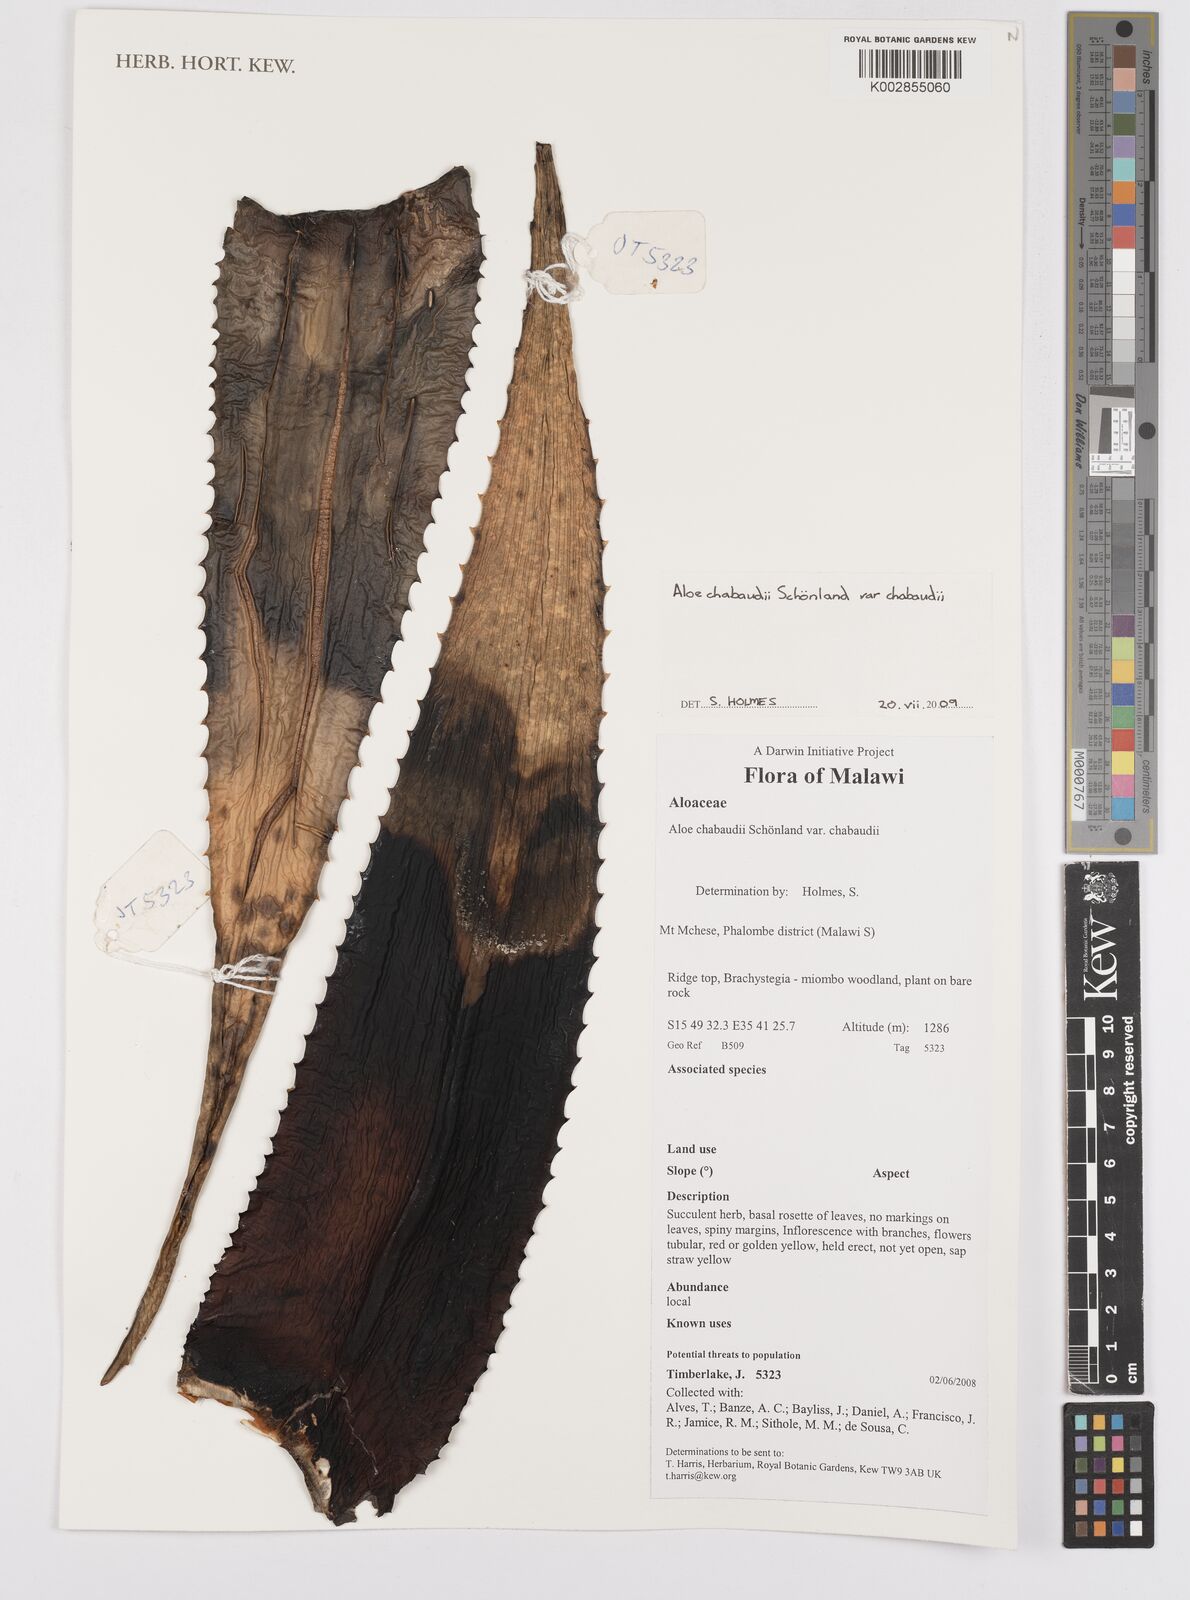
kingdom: Plantae
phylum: Tracheophyta
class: Liliopsida
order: Asparagales
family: Asphodelaceae
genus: Aloe
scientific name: Aloe chabaudii
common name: Chabaud's aloe
